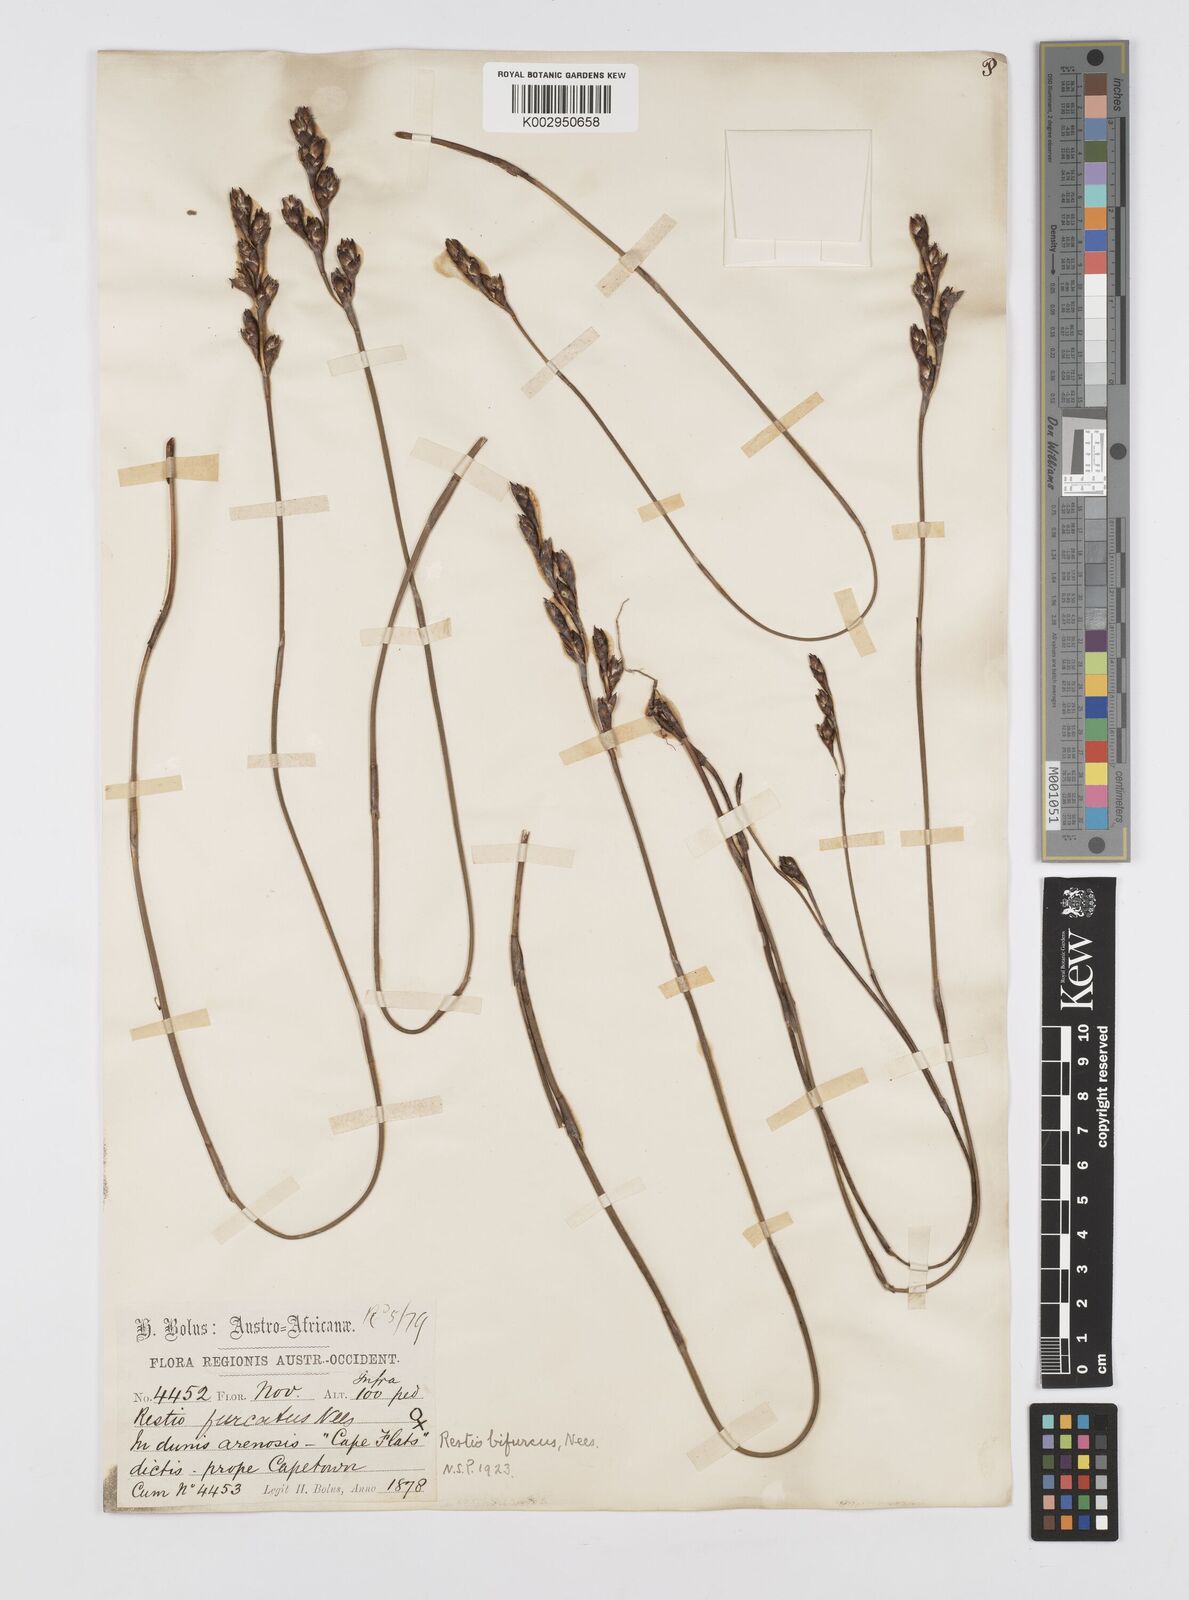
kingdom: Plantae
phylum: Tracheophyta
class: Liliopsida
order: Poales
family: Restionaceae
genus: Restio
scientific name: Restio bifurcus
